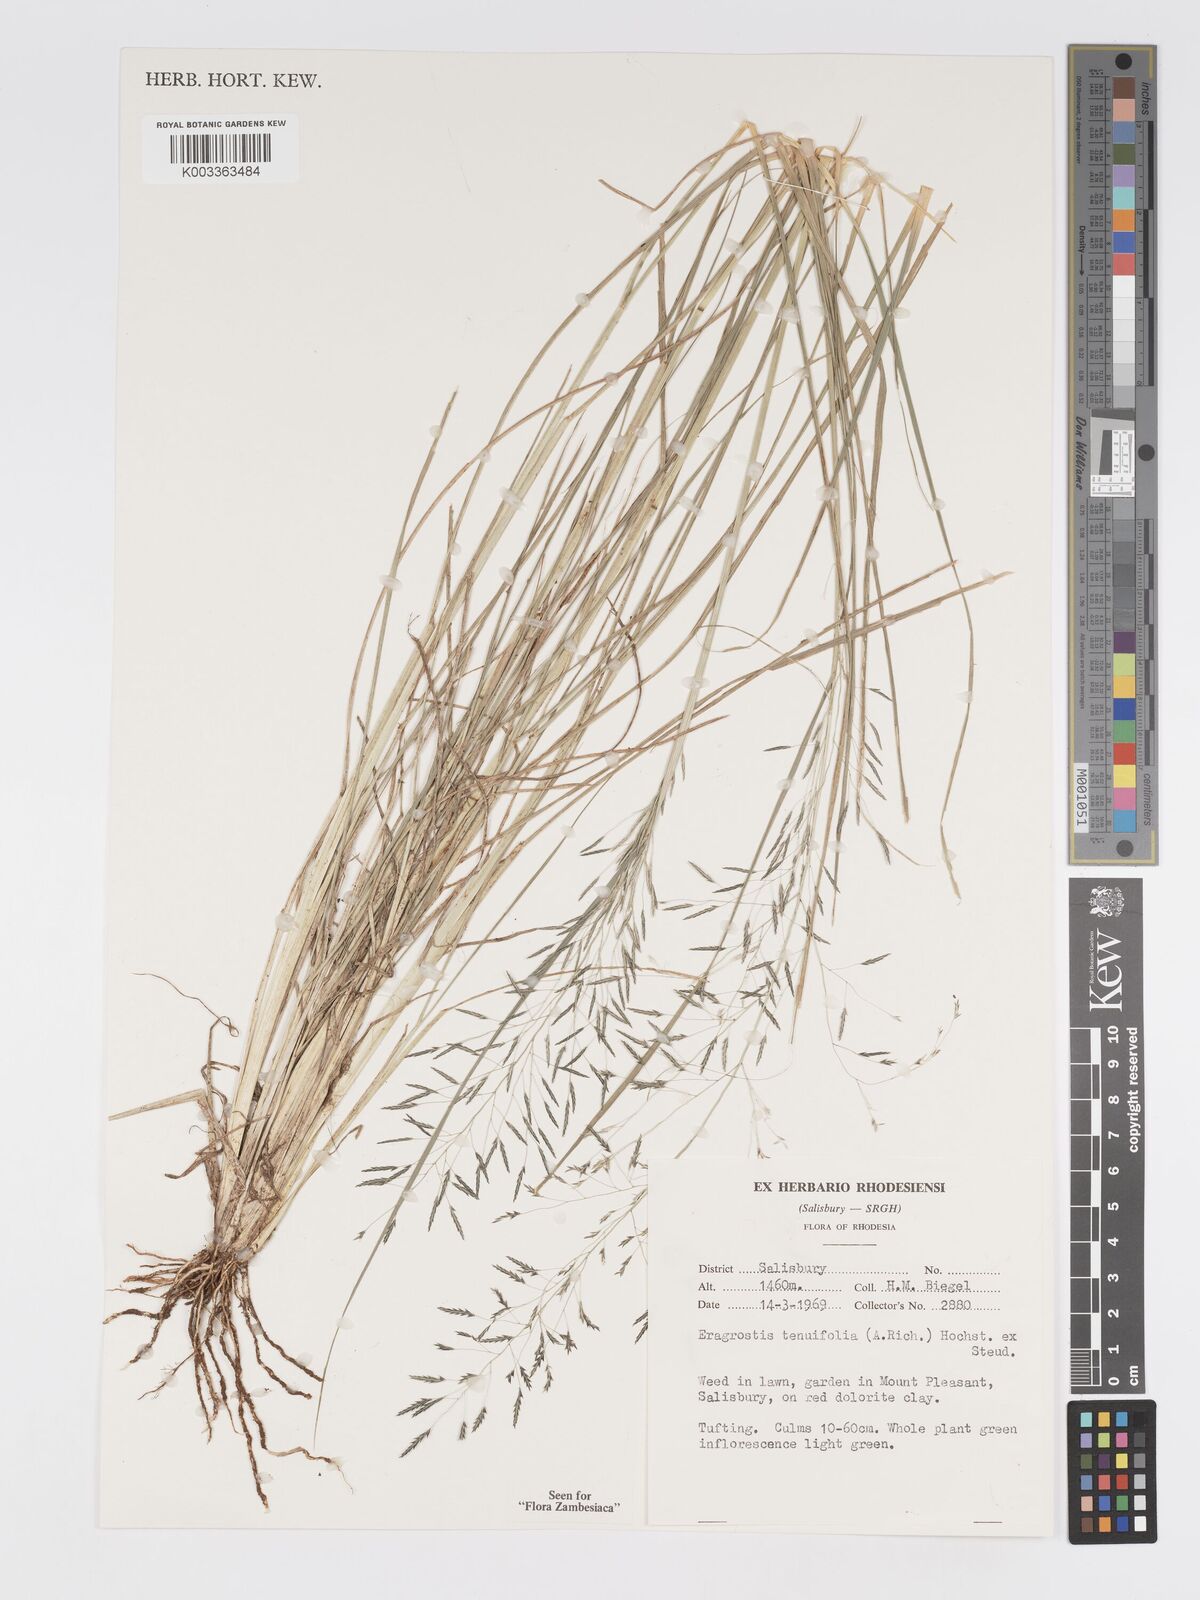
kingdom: Plantae
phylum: Tracheophyta
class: Liliopsida
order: Poales
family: Poaceae
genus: Eragrostis
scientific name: Eragrostis tenuifolia
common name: Elastic grass
